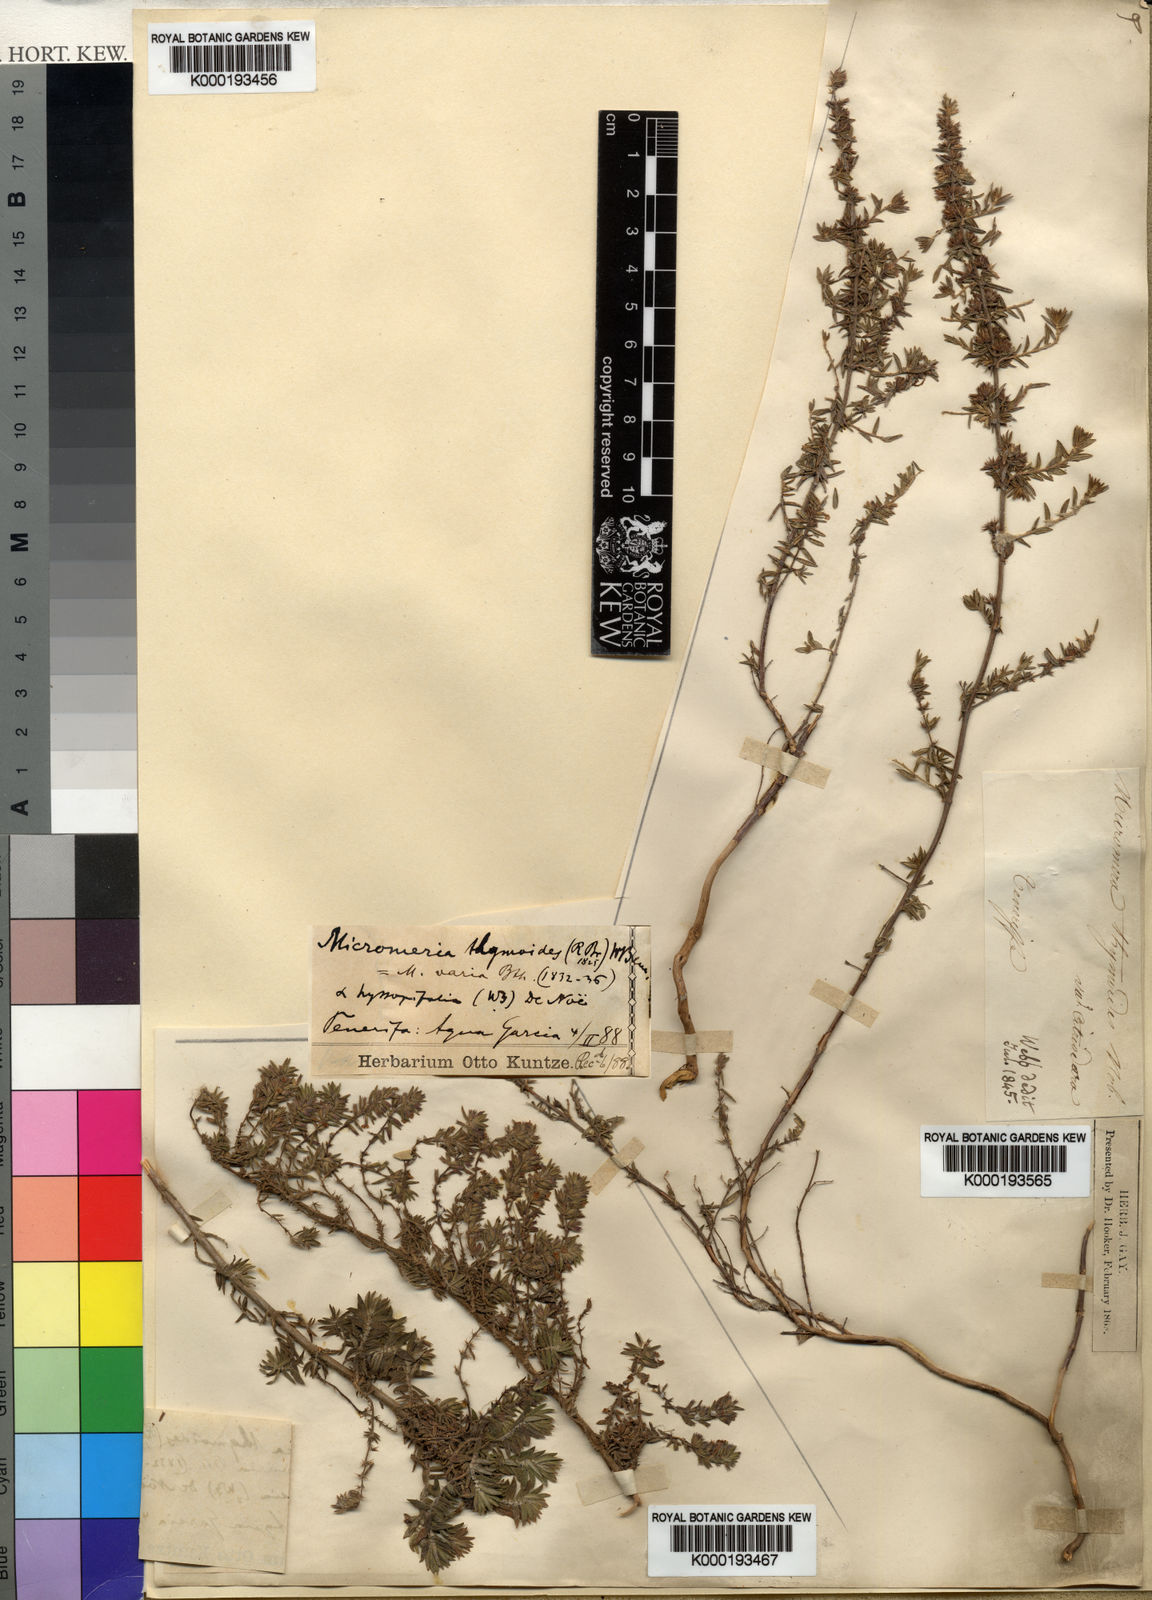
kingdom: Plantae
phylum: Tracheophyta
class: Magnoliopsida
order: Lamiales
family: Lamiaceae
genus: Micromeria
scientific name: Micromeria maderensis
